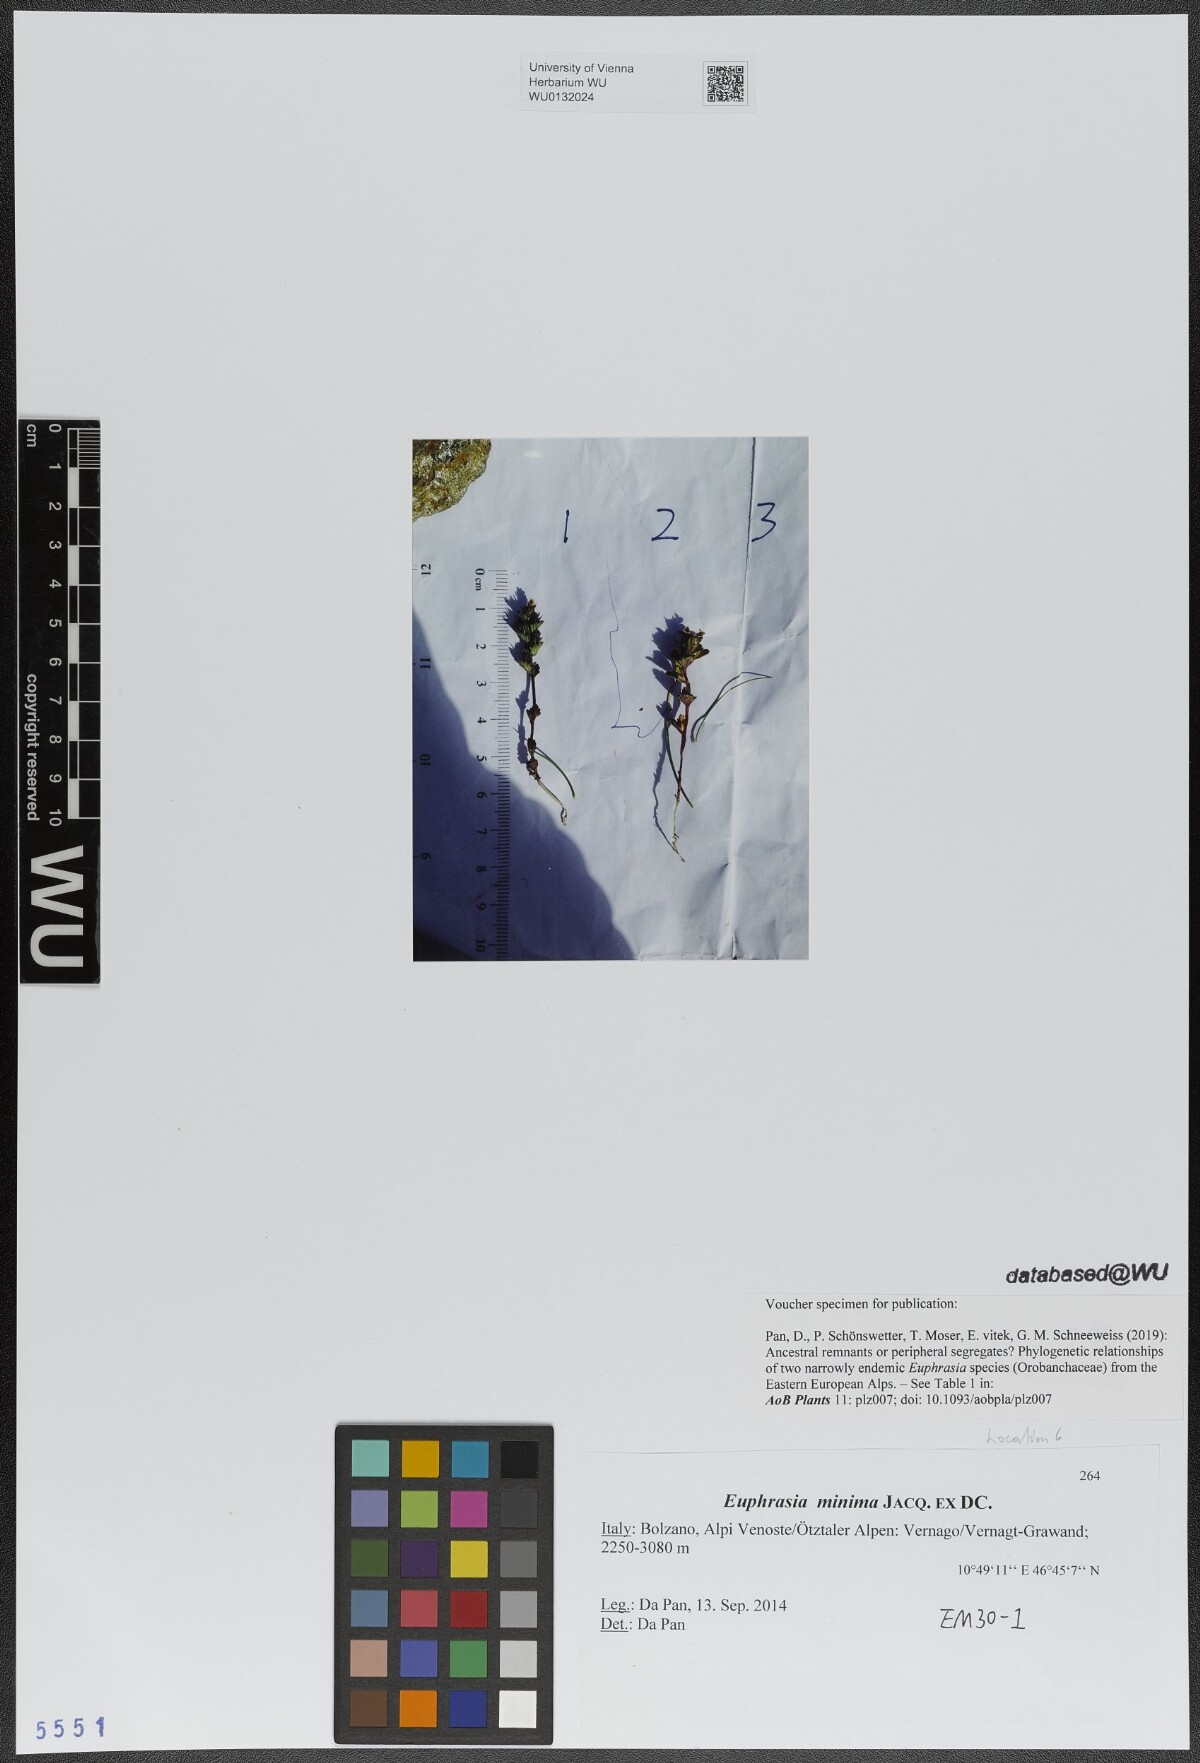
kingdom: Plantae
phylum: Tracheophyta
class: Magnoliopsida
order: Lamiales
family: Orobanchaceae
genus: Euphrasia
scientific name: Euphrasia minima
